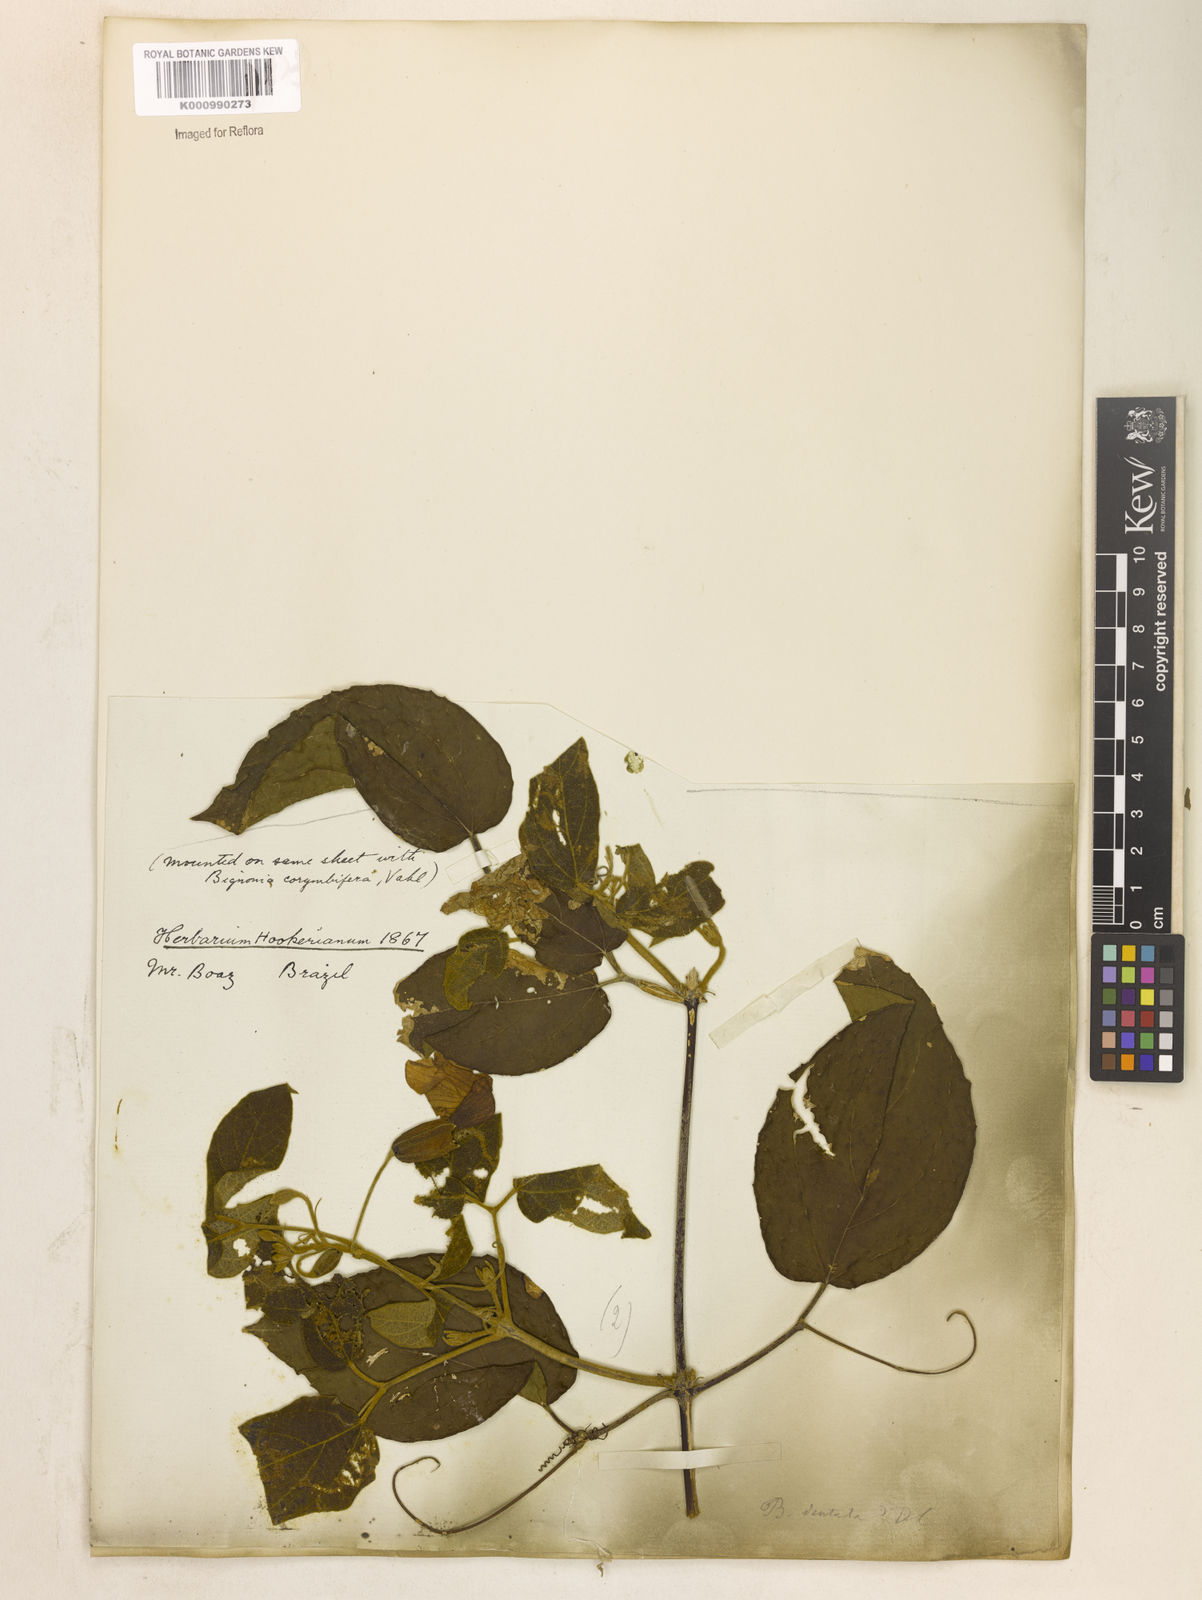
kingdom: Plantae
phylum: Tracheophyta
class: Magnoliopsida
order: Lamiales
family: Bignoniaceae
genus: Stizophyllum
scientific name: Stizophyllum perforatum
